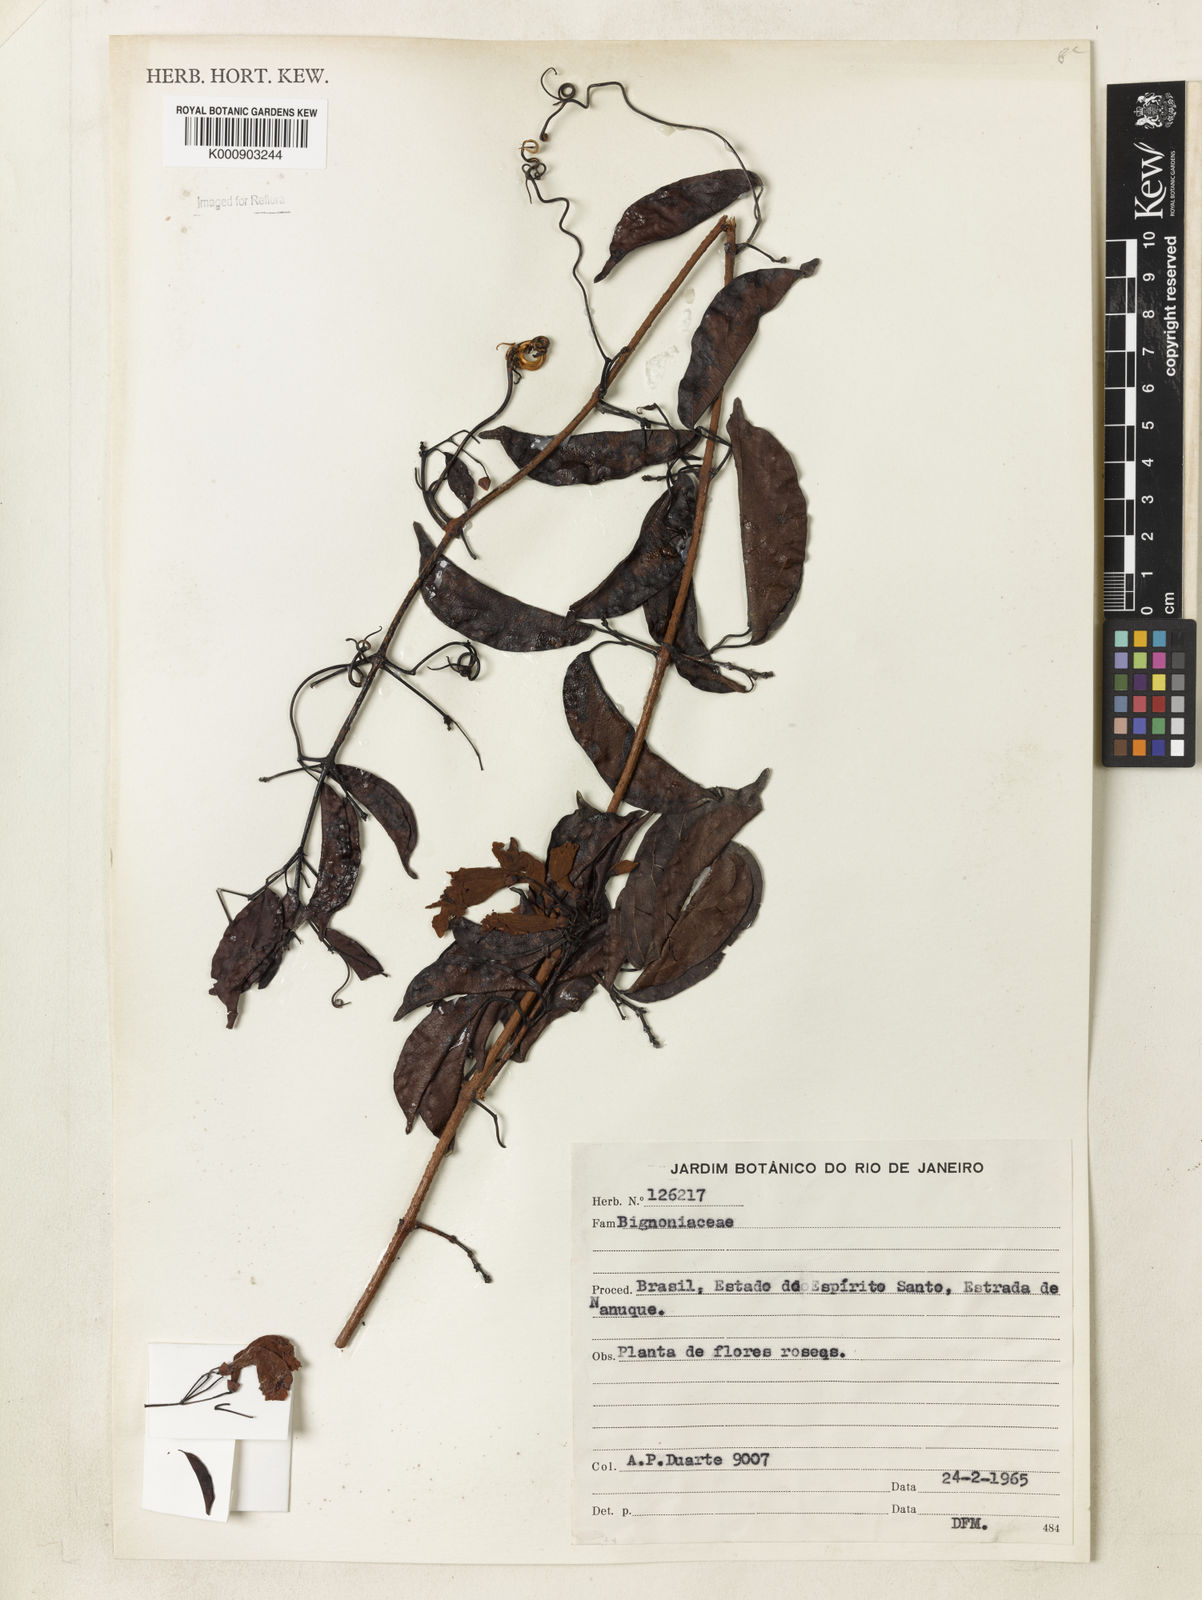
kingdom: Plantae
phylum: Tracheophyta
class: Magnoliopsida
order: Lamiales
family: Bignoniaceae
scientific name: Bignoniaceae
